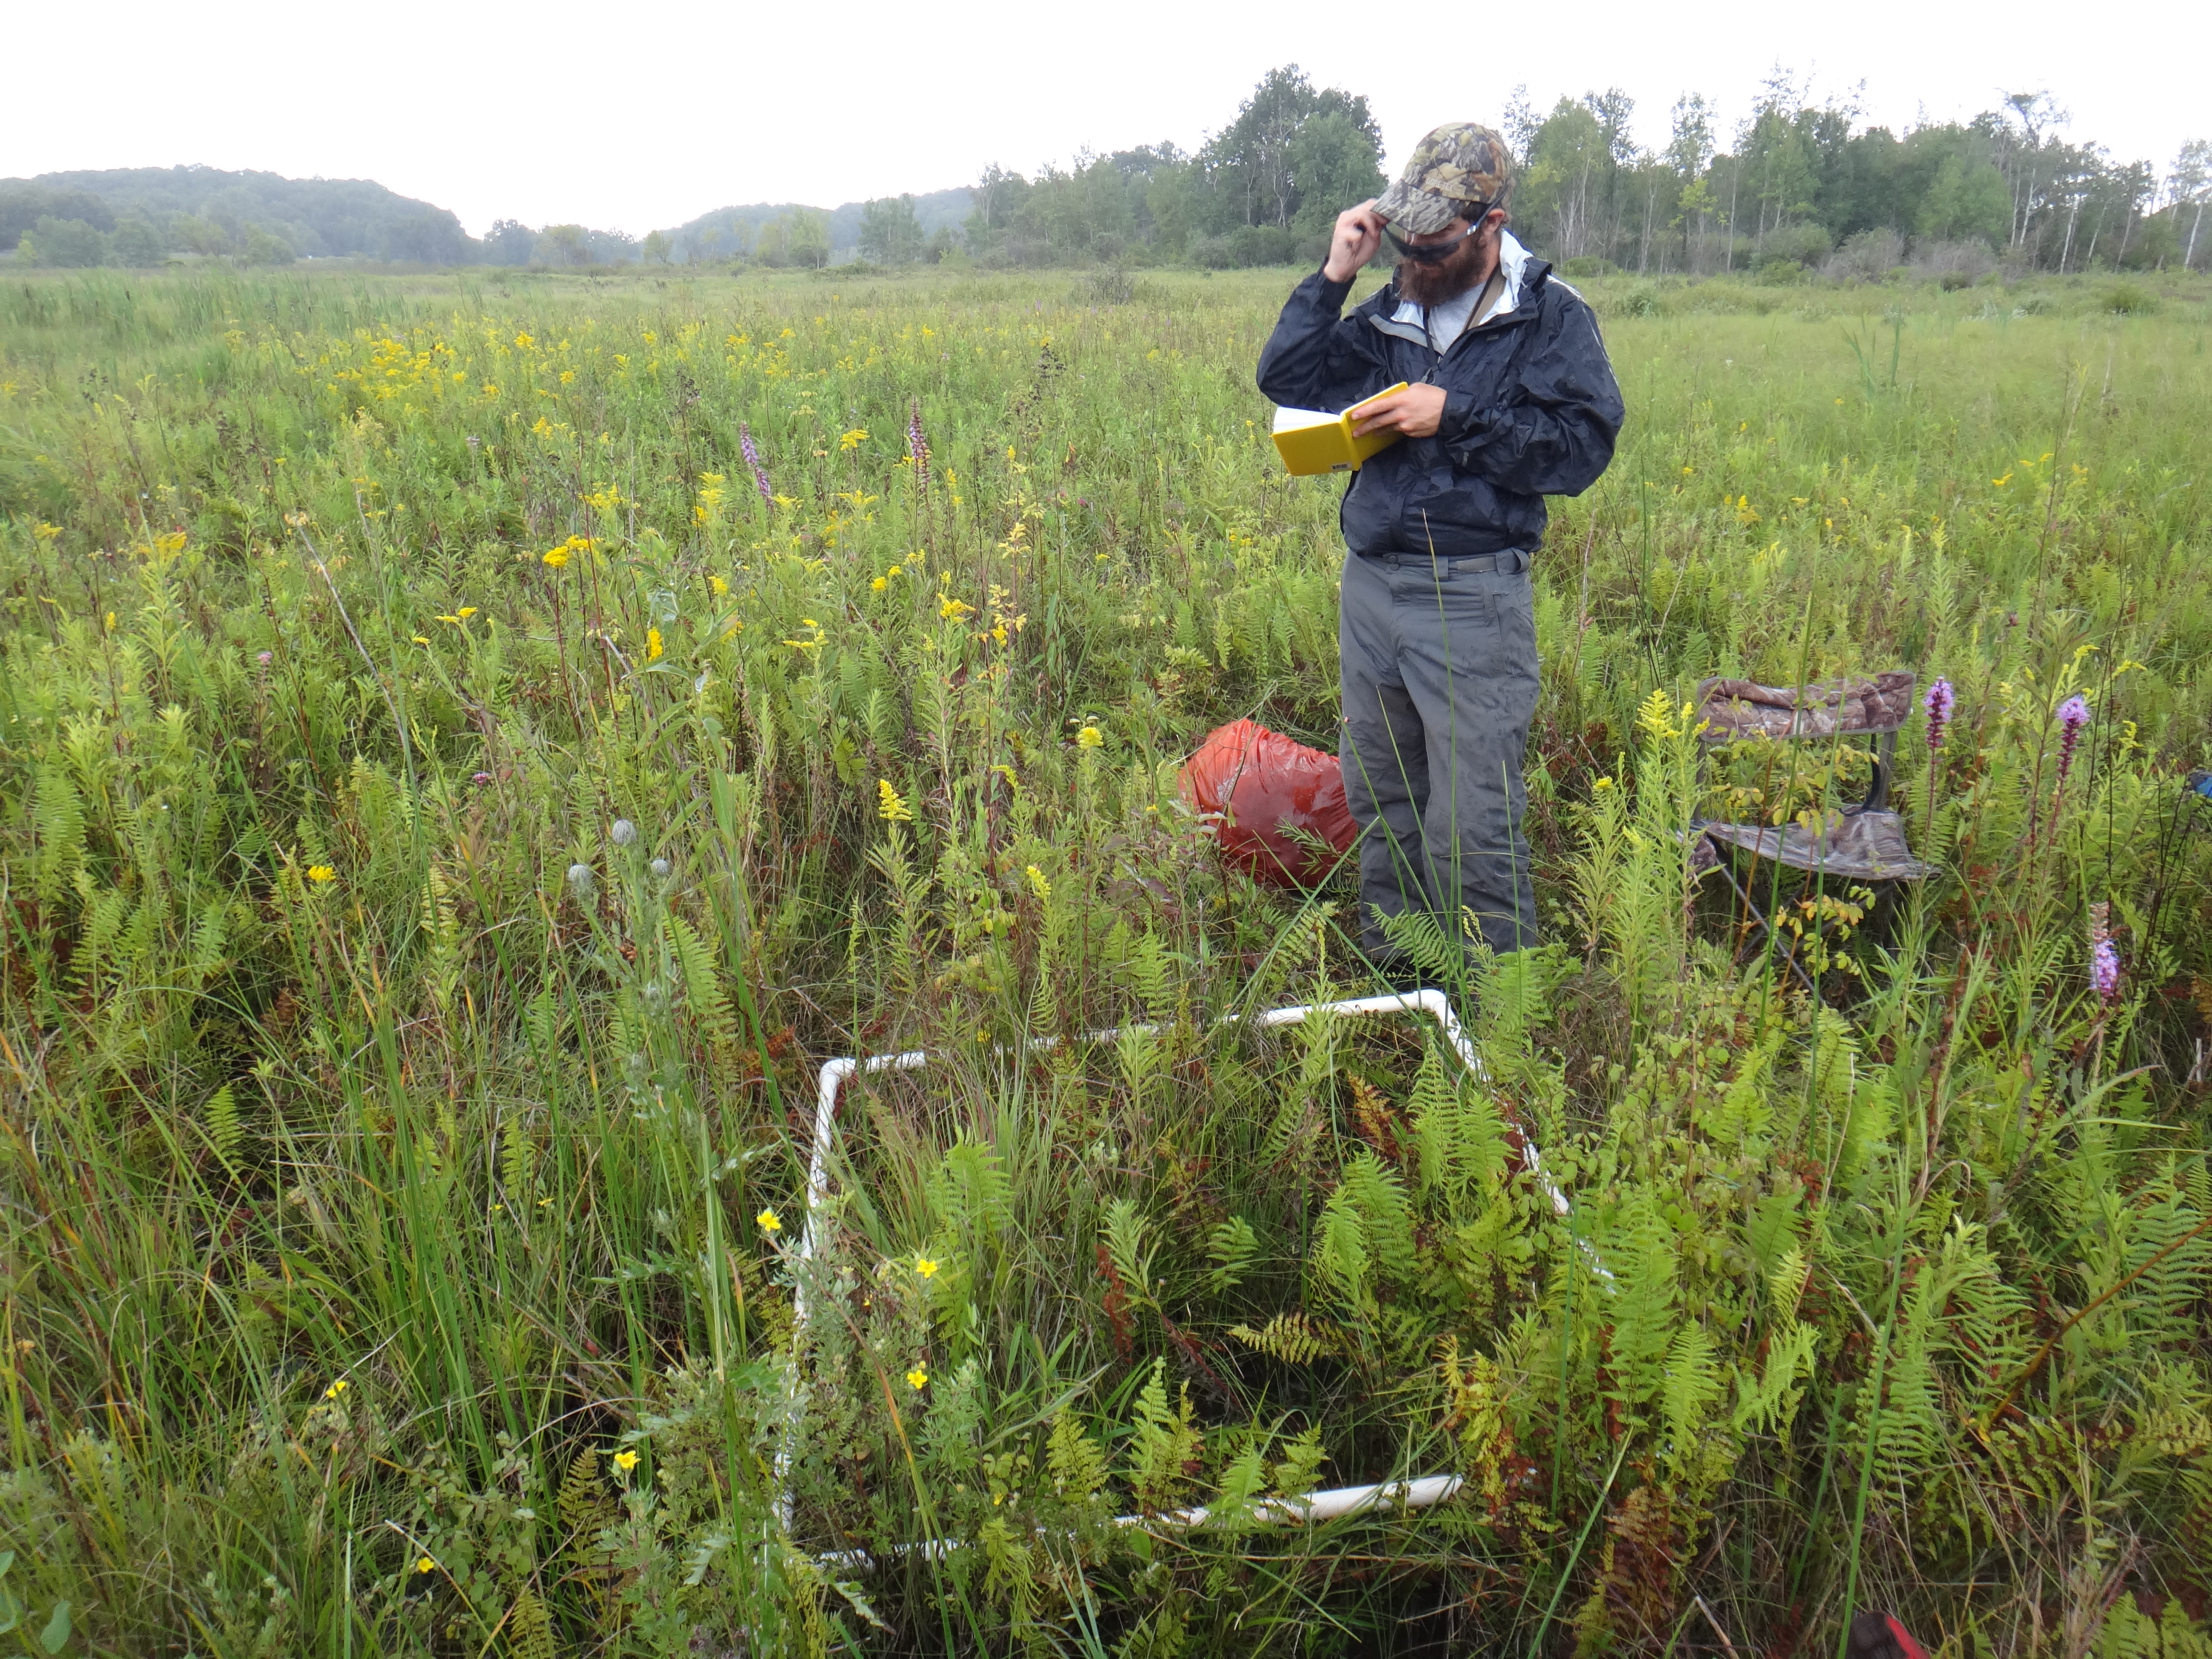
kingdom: Plantae
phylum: Tracheophyta
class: Magnoliopsida
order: Gentianales
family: Rubiaceae
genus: Galium
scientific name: Galium labradoricum
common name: Labrador bedstraw
